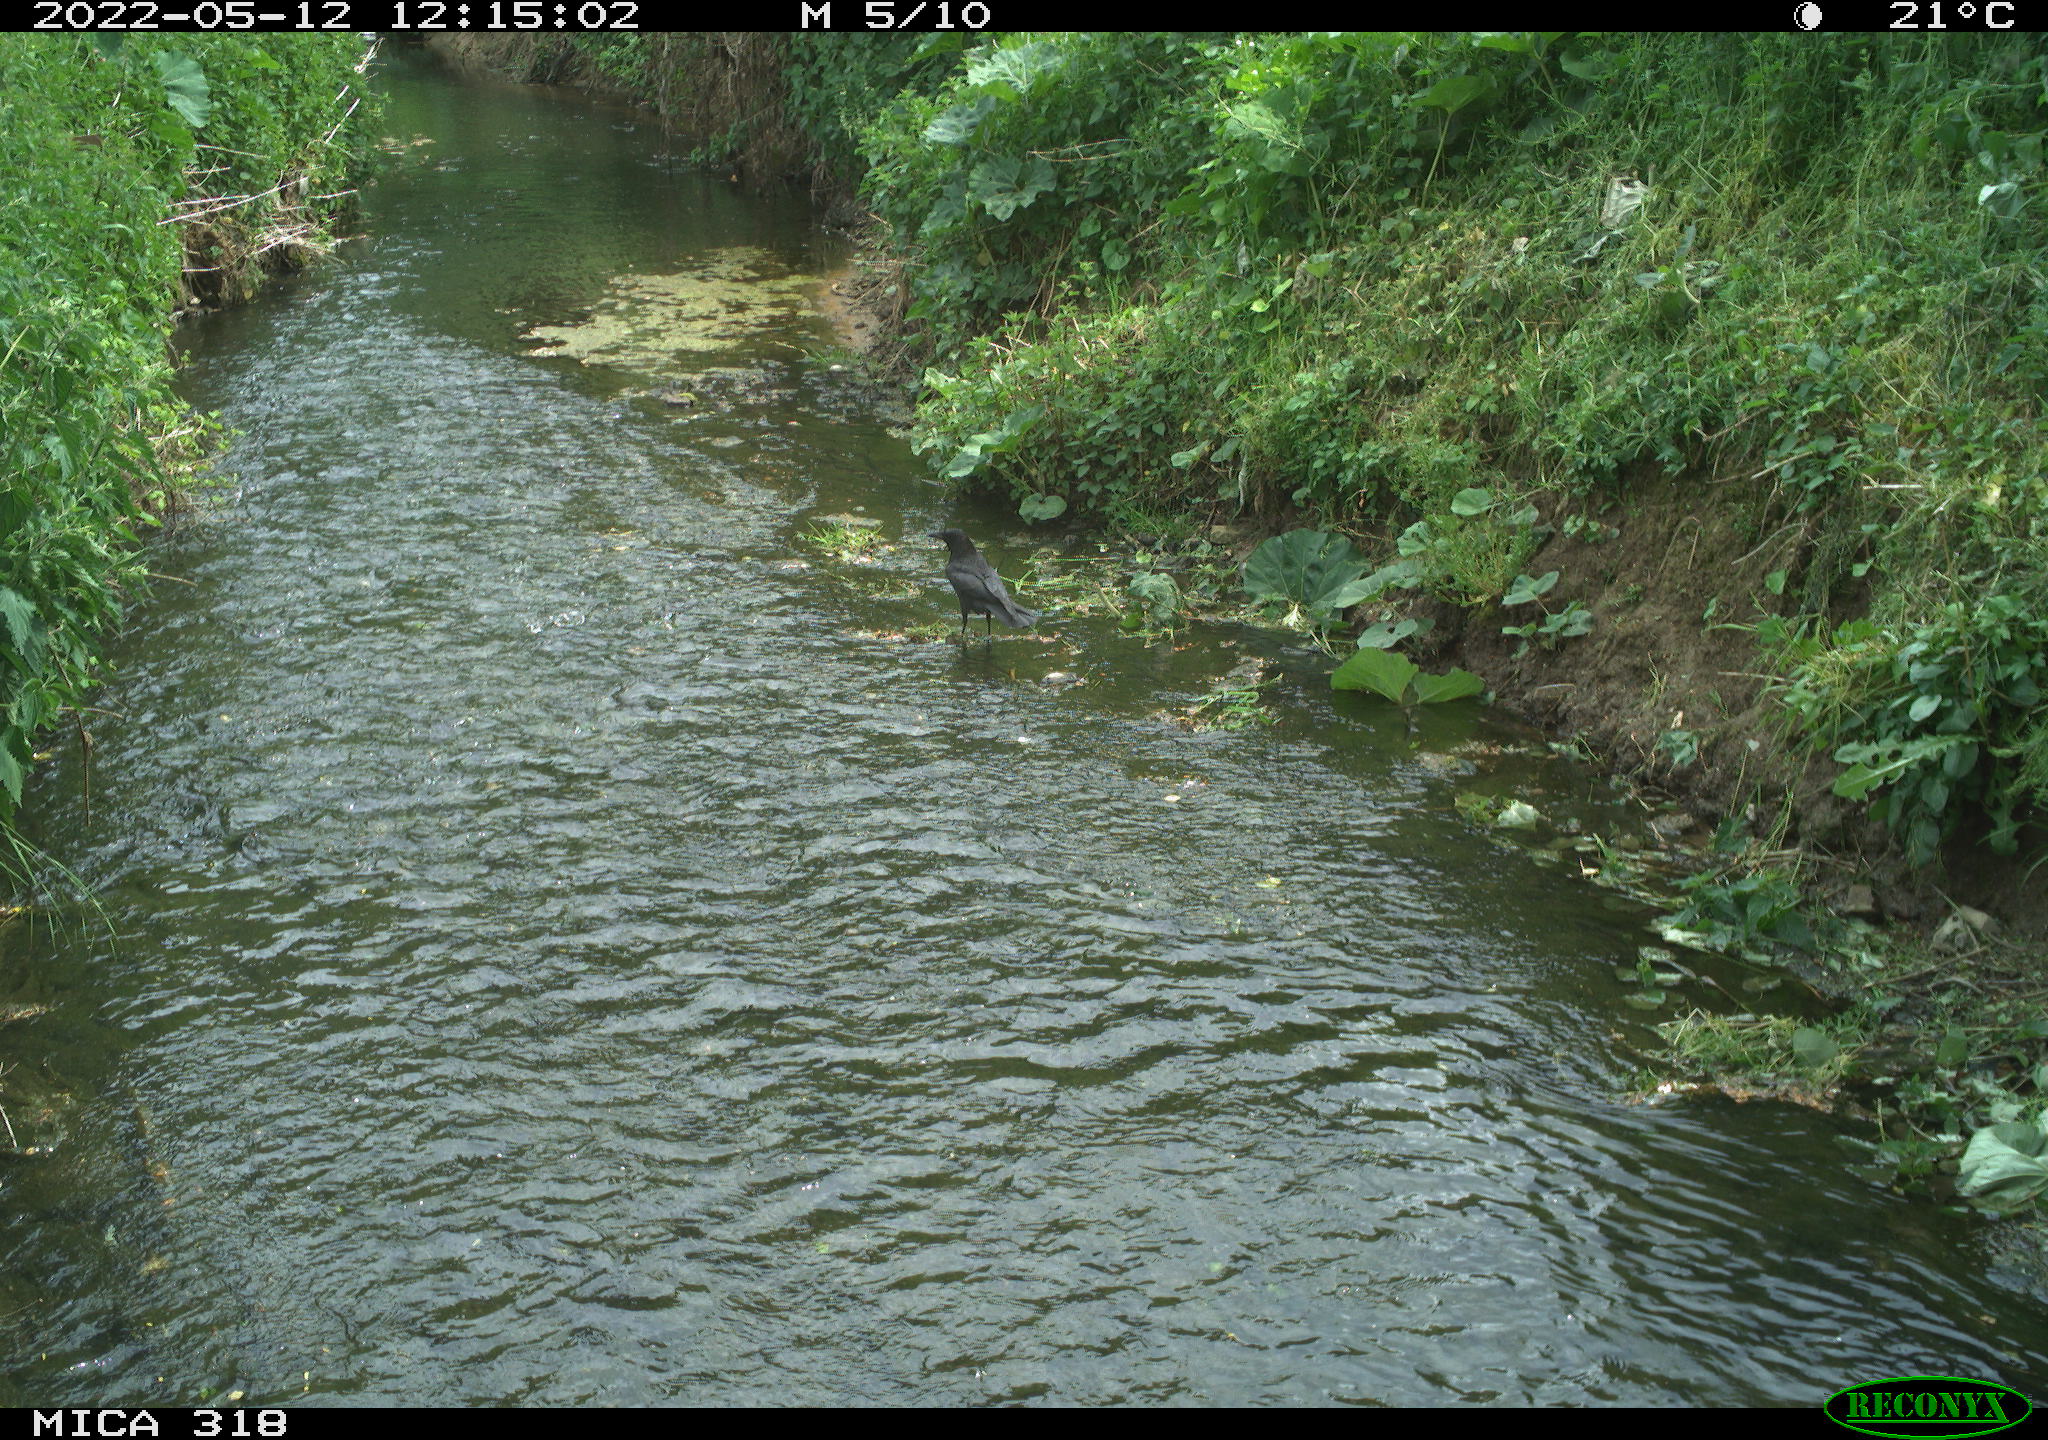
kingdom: Animalia
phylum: Chordata
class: Aves
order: Passeriformes
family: Corvidae
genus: Corvus
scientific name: Corvus corone
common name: Carrion crow
